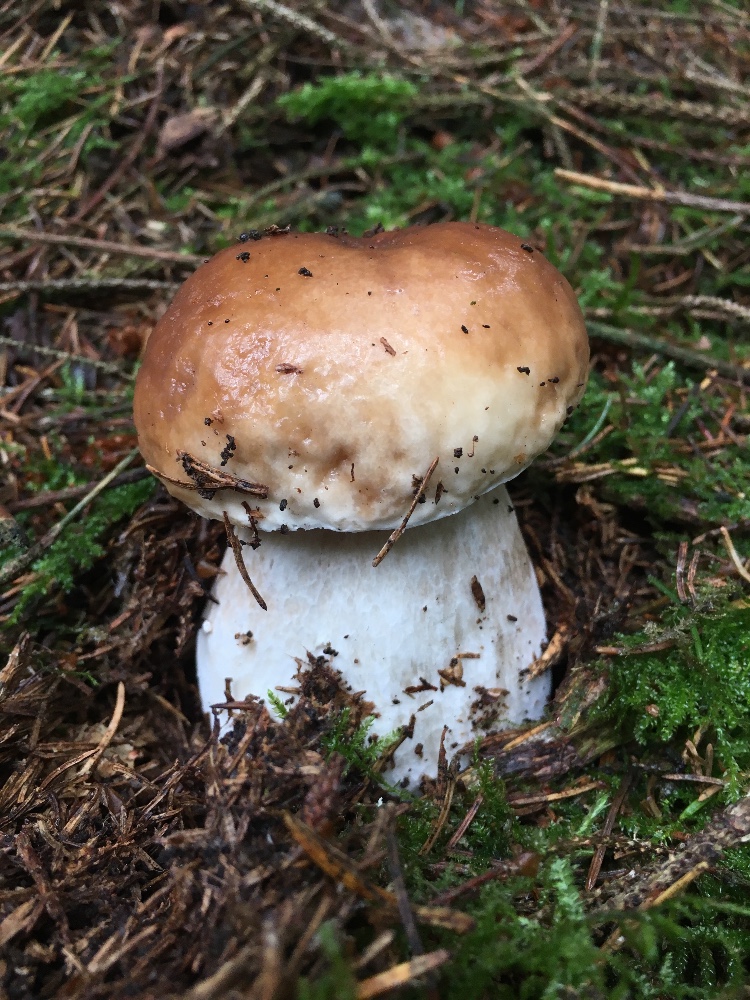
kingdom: Fungi
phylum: Basidiomycota
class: Agaricomycetes
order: Boletales
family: Boletaceae
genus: Boletus
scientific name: Boletus edulis
